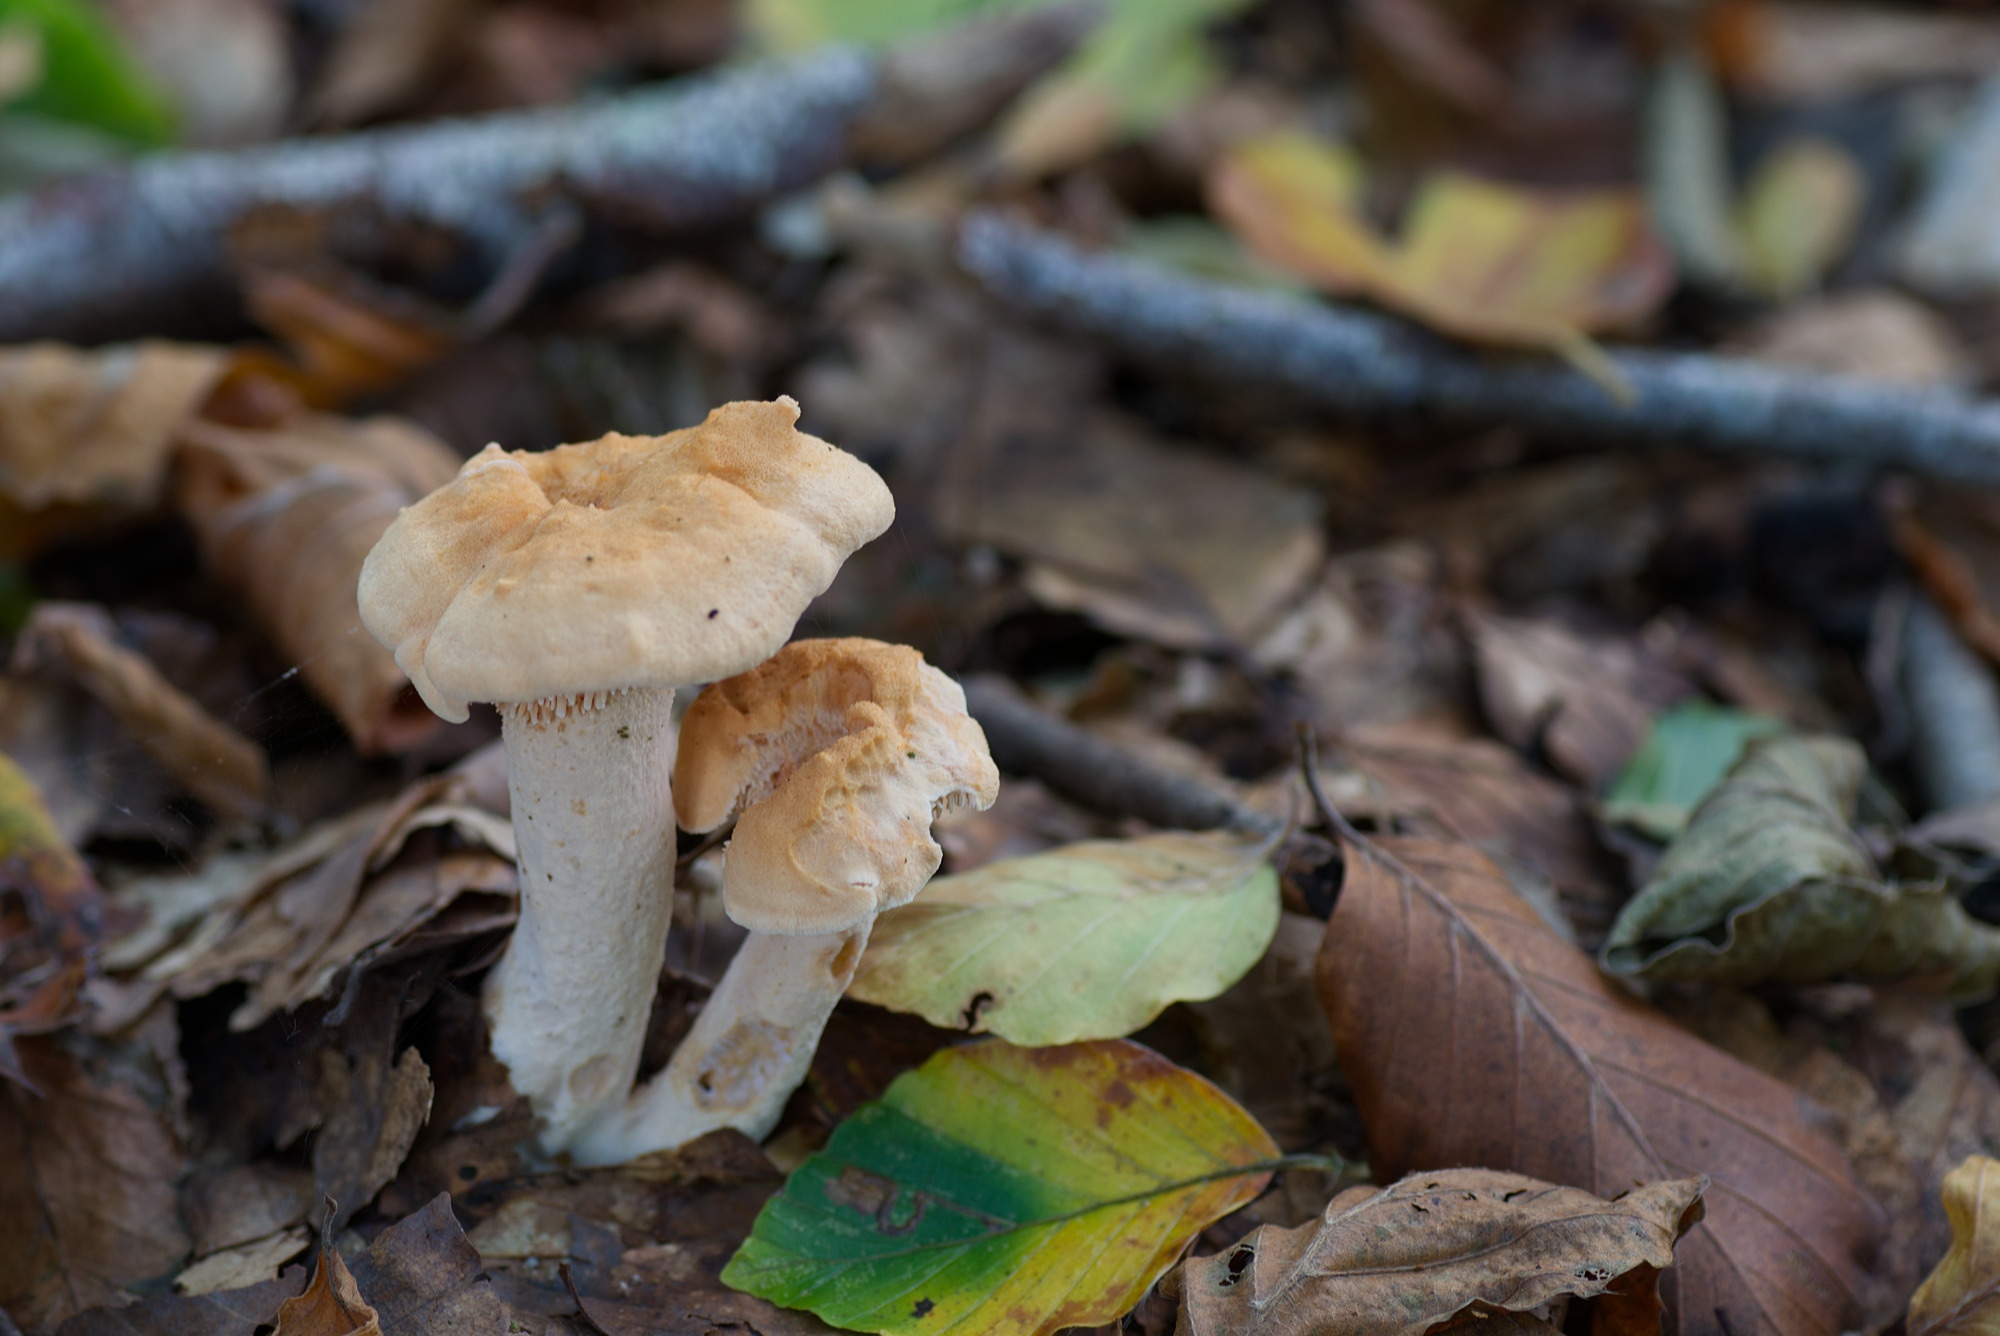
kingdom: Fungi
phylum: Basidiomycota
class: Agaricomycetes
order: Cantharellales
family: Hydnaceae
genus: Hydnum
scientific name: Hydnum
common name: pigsvamp
